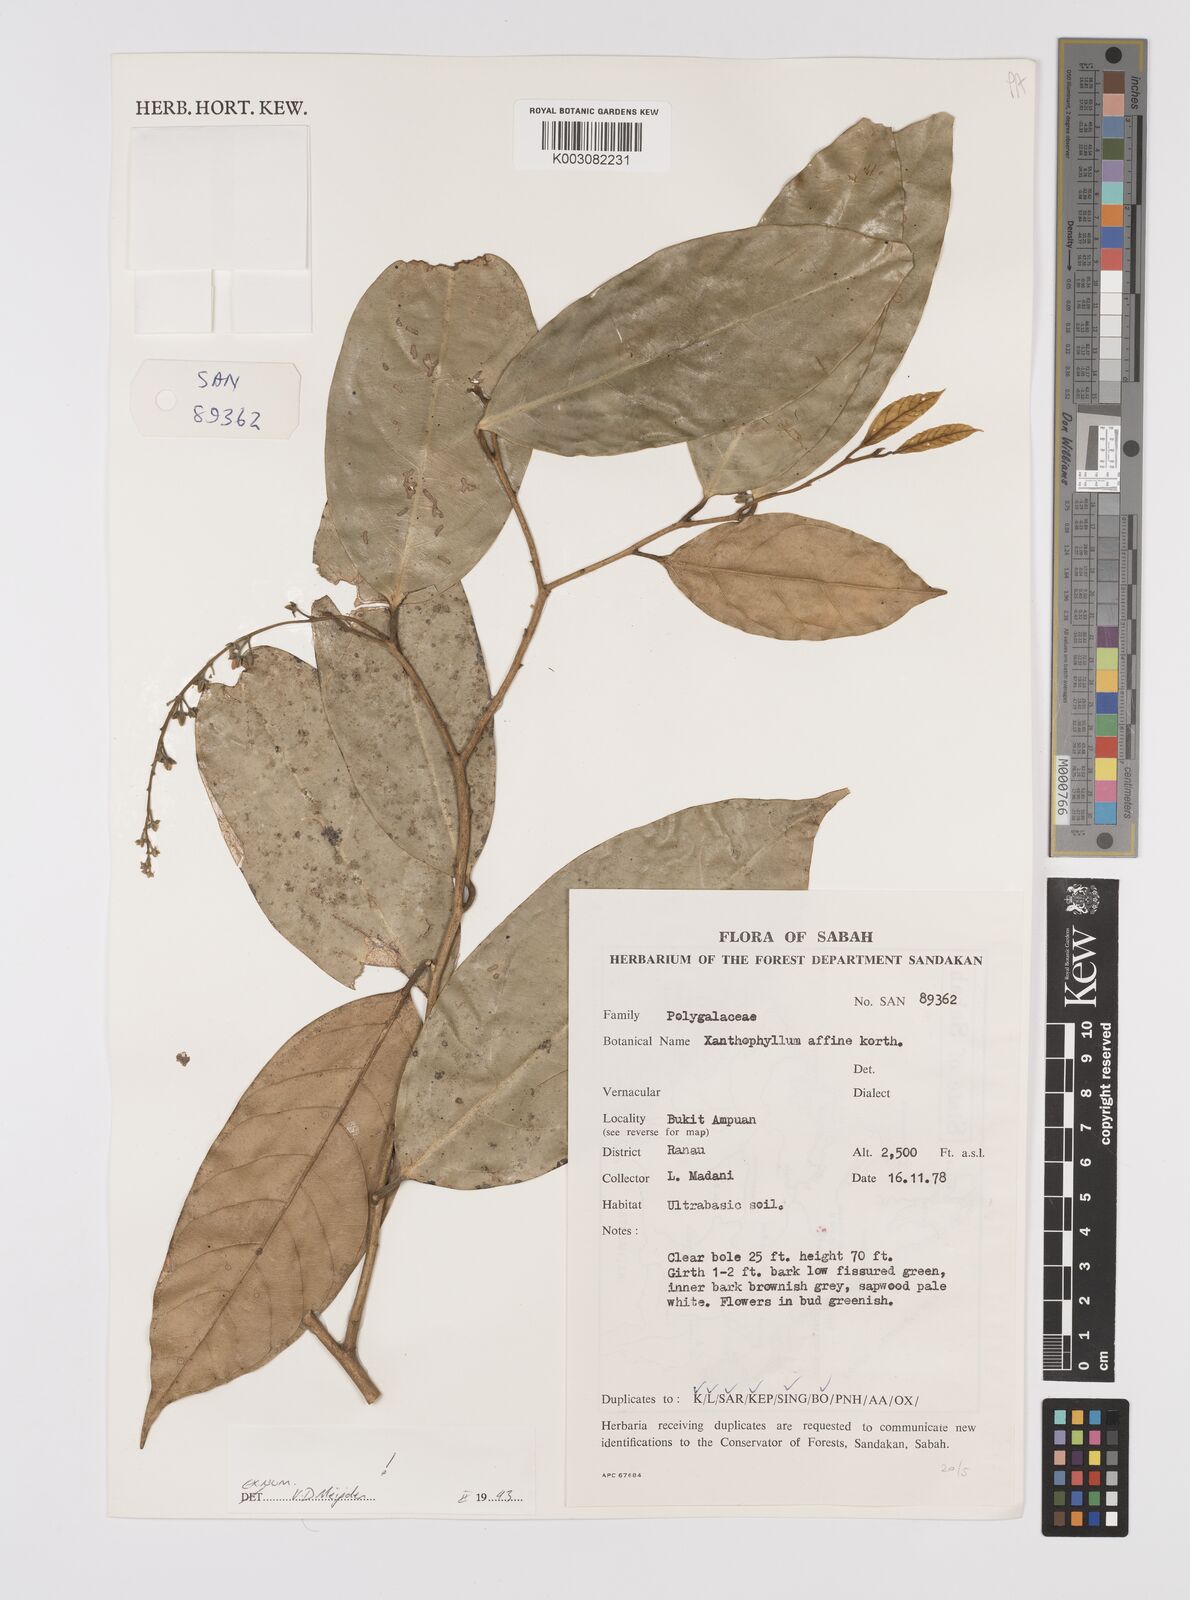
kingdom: Plantae
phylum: Tracheophyta
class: Magnoliopsida
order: Fabales
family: Polygalaceae
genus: Xanthophyllum
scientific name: Xanthophyllum flavescens
